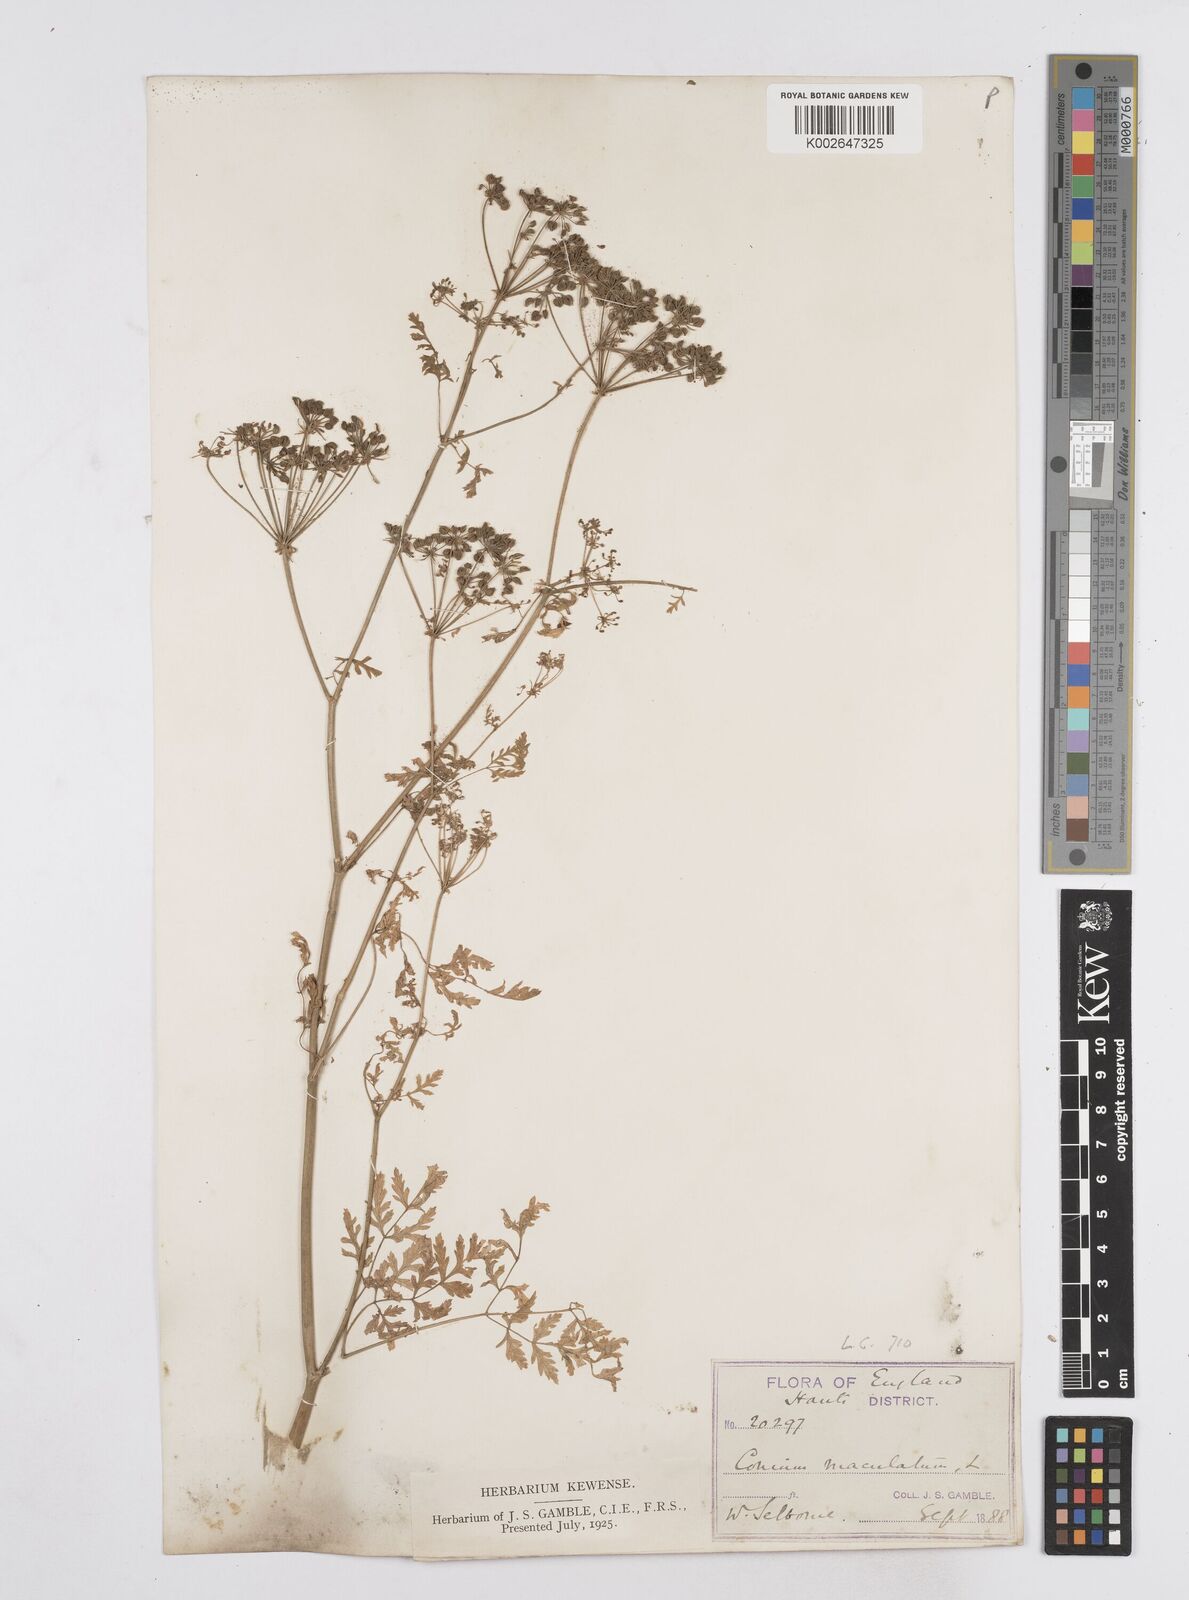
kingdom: Plantae
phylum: Tracheophyta
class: Magnoliopsida
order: Apiales
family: Apiaceae
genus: Conium
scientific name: Conium maculatum
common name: Hemlock
